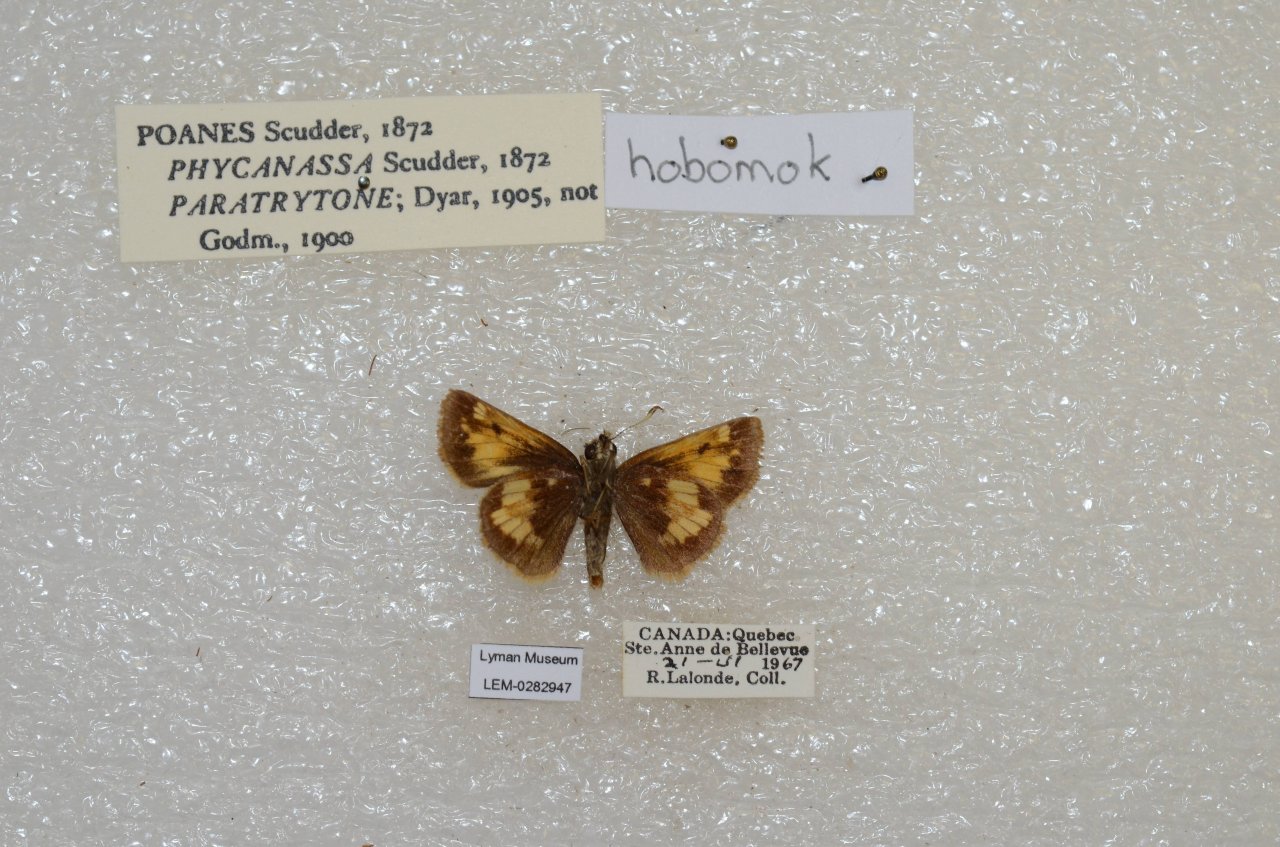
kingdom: Animalia
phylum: Arthropoda
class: Insecta
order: Lepidoptera
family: Hesperiidae
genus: Lon
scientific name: Lon hobomok
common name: Hobomok Skipper
